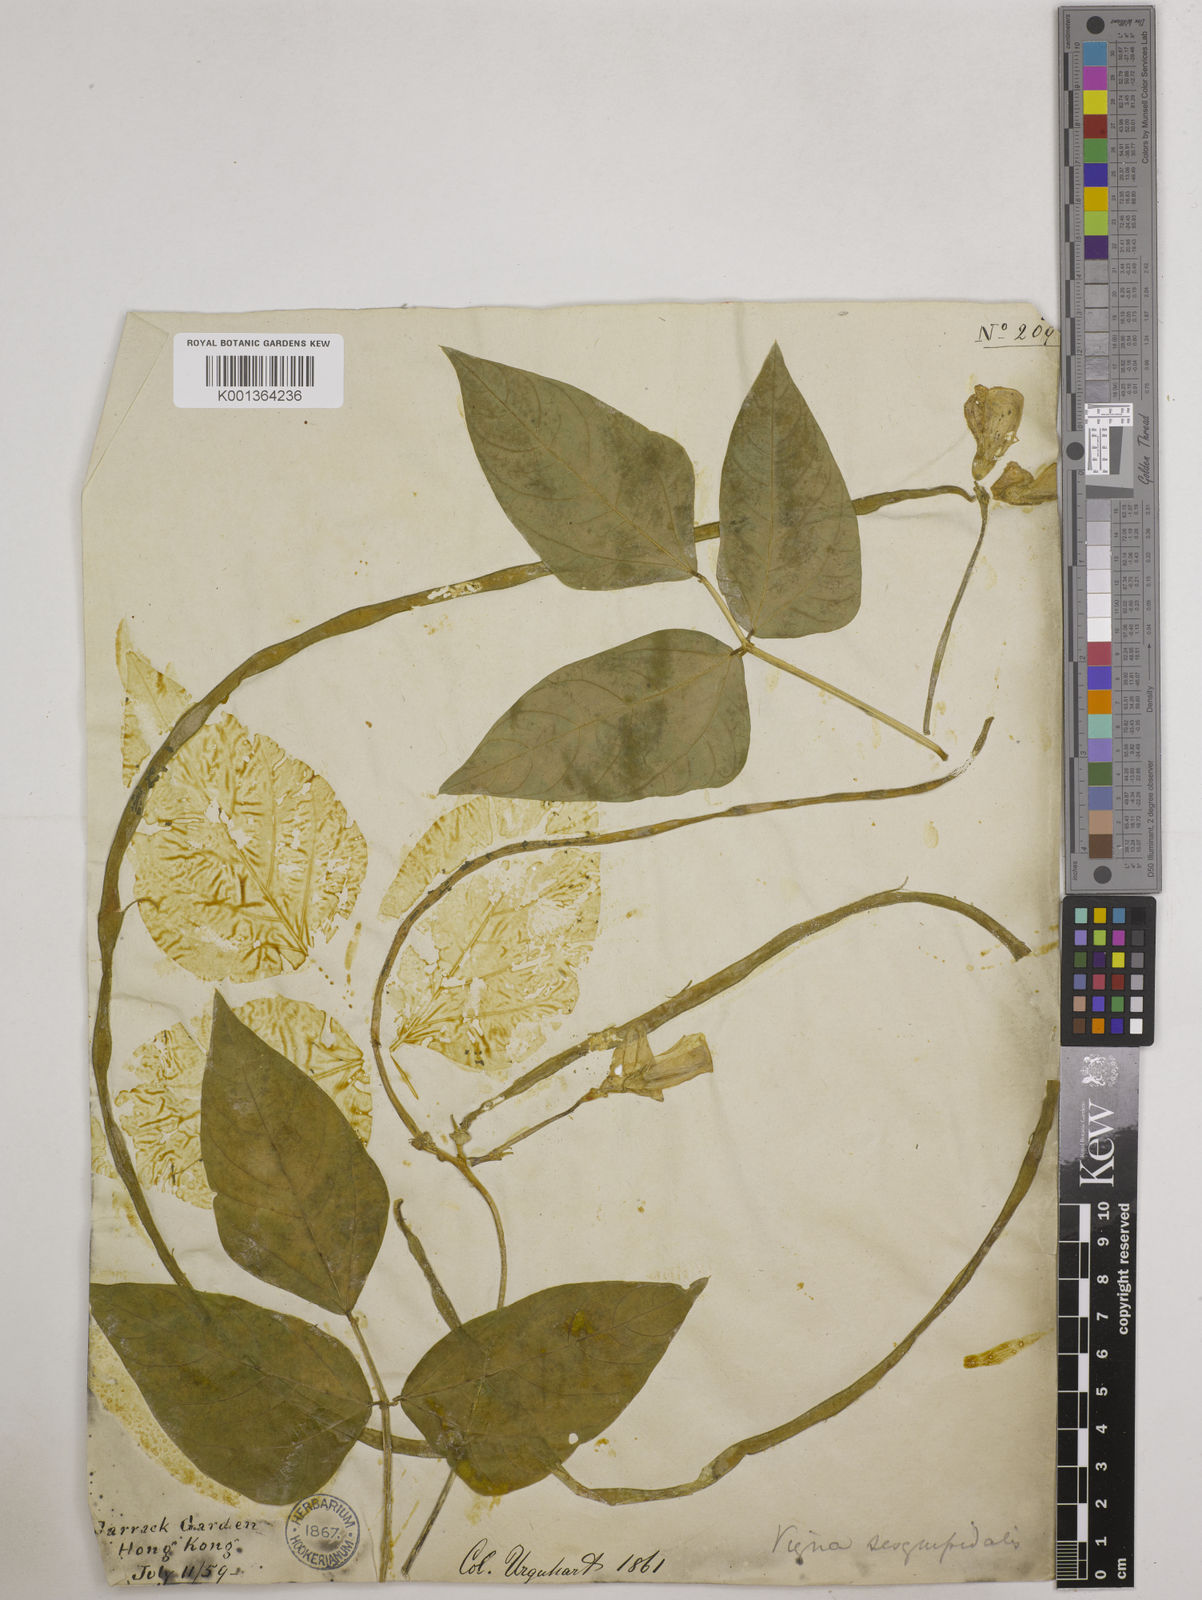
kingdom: Plantae
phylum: Tracheophyta
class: Magnoliopsida
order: Fabales
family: Fabaceae
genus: Vigna
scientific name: Vigna unguiculata
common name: Cowpea
